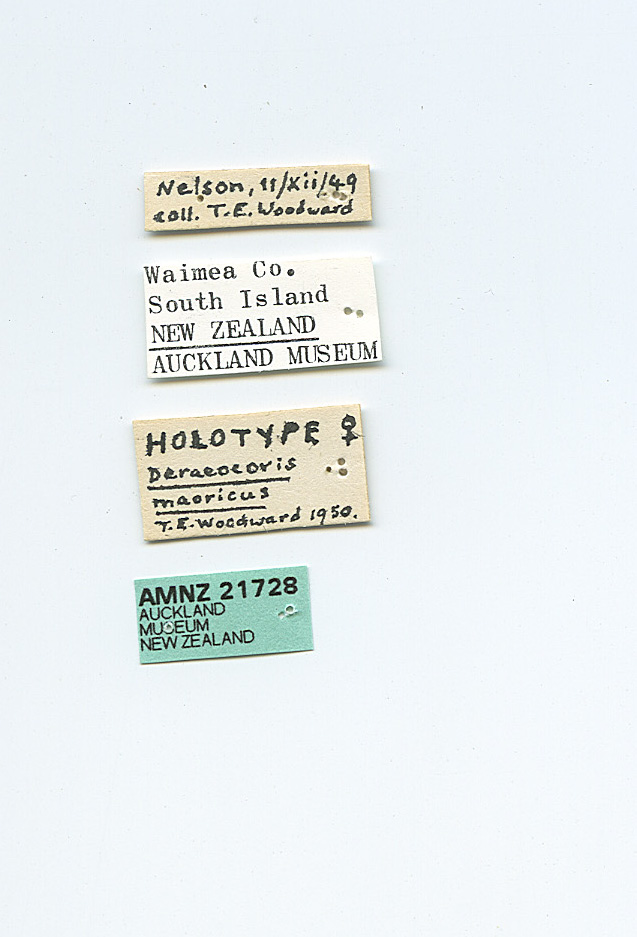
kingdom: Animalia
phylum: Arthropoda
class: Insecta
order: Hemiptera
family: Miridae
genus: Deraeocoris
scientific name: Deraeocoris maoricus
